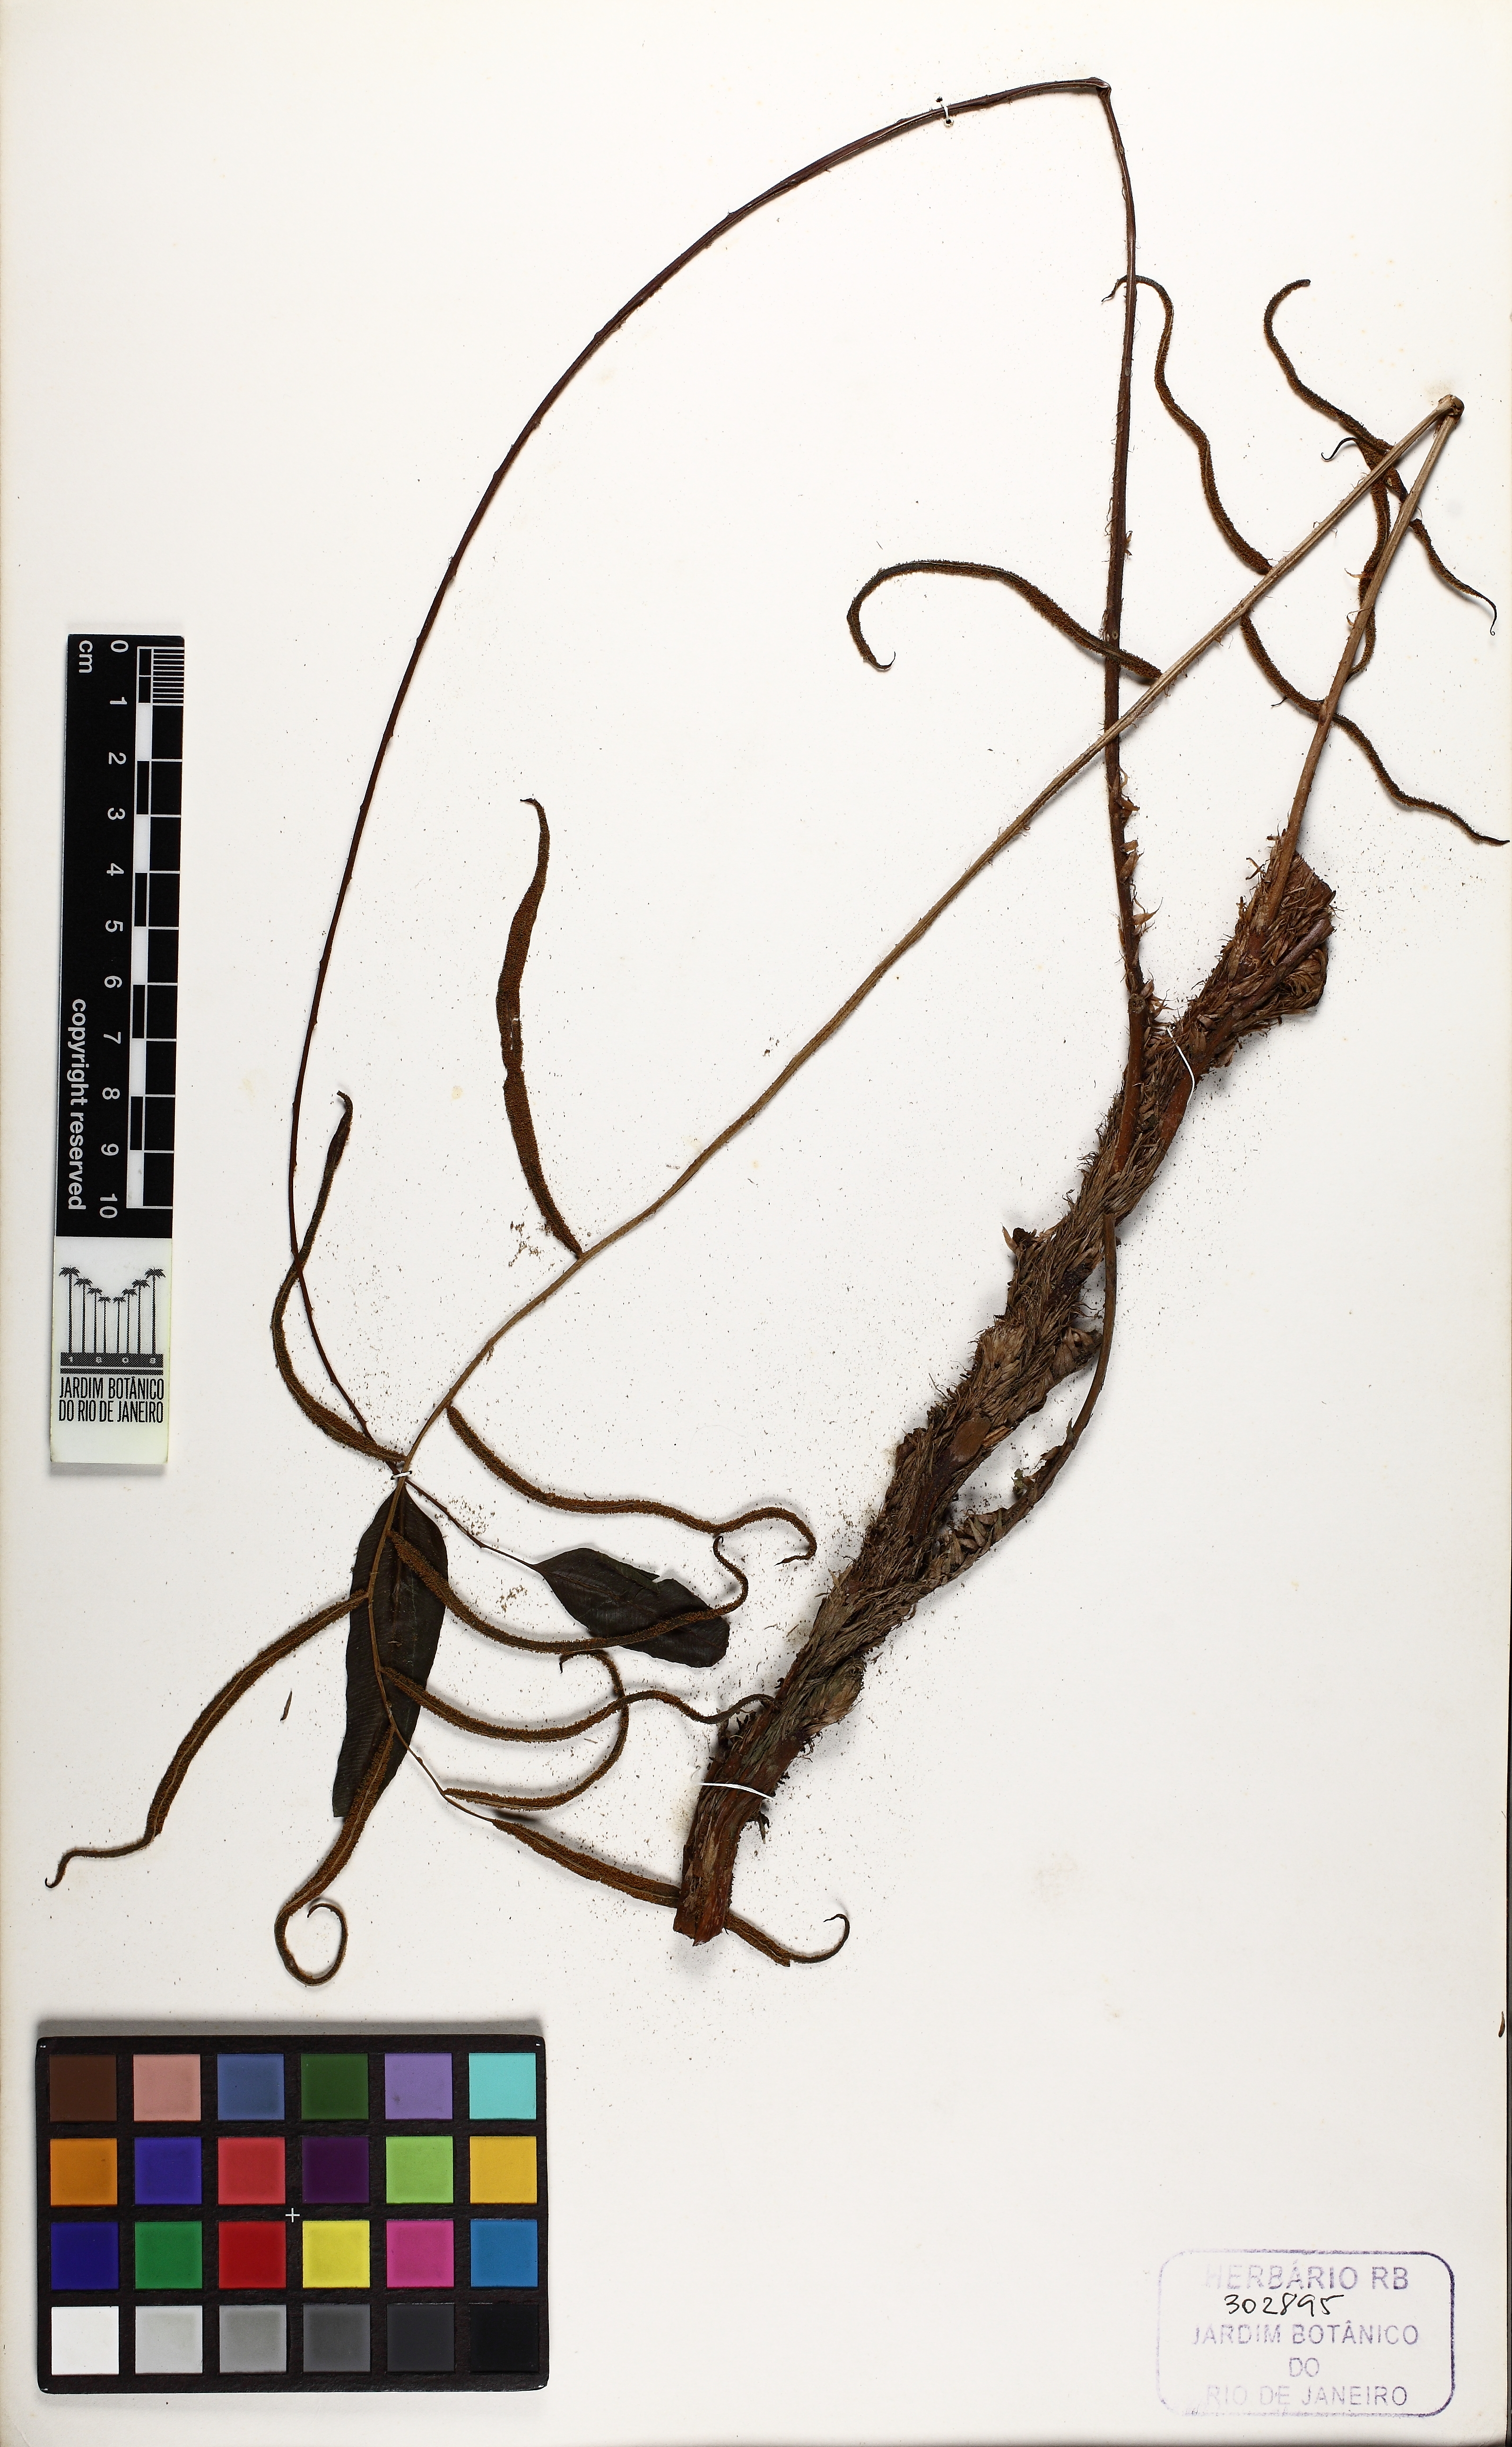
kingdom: Plantae
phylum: Tracheophyta
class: Polypodiopsida
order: Polypodiales
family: Lomariopsidaceae
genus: Lomariopsis
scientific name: Lomariopsis marginata
